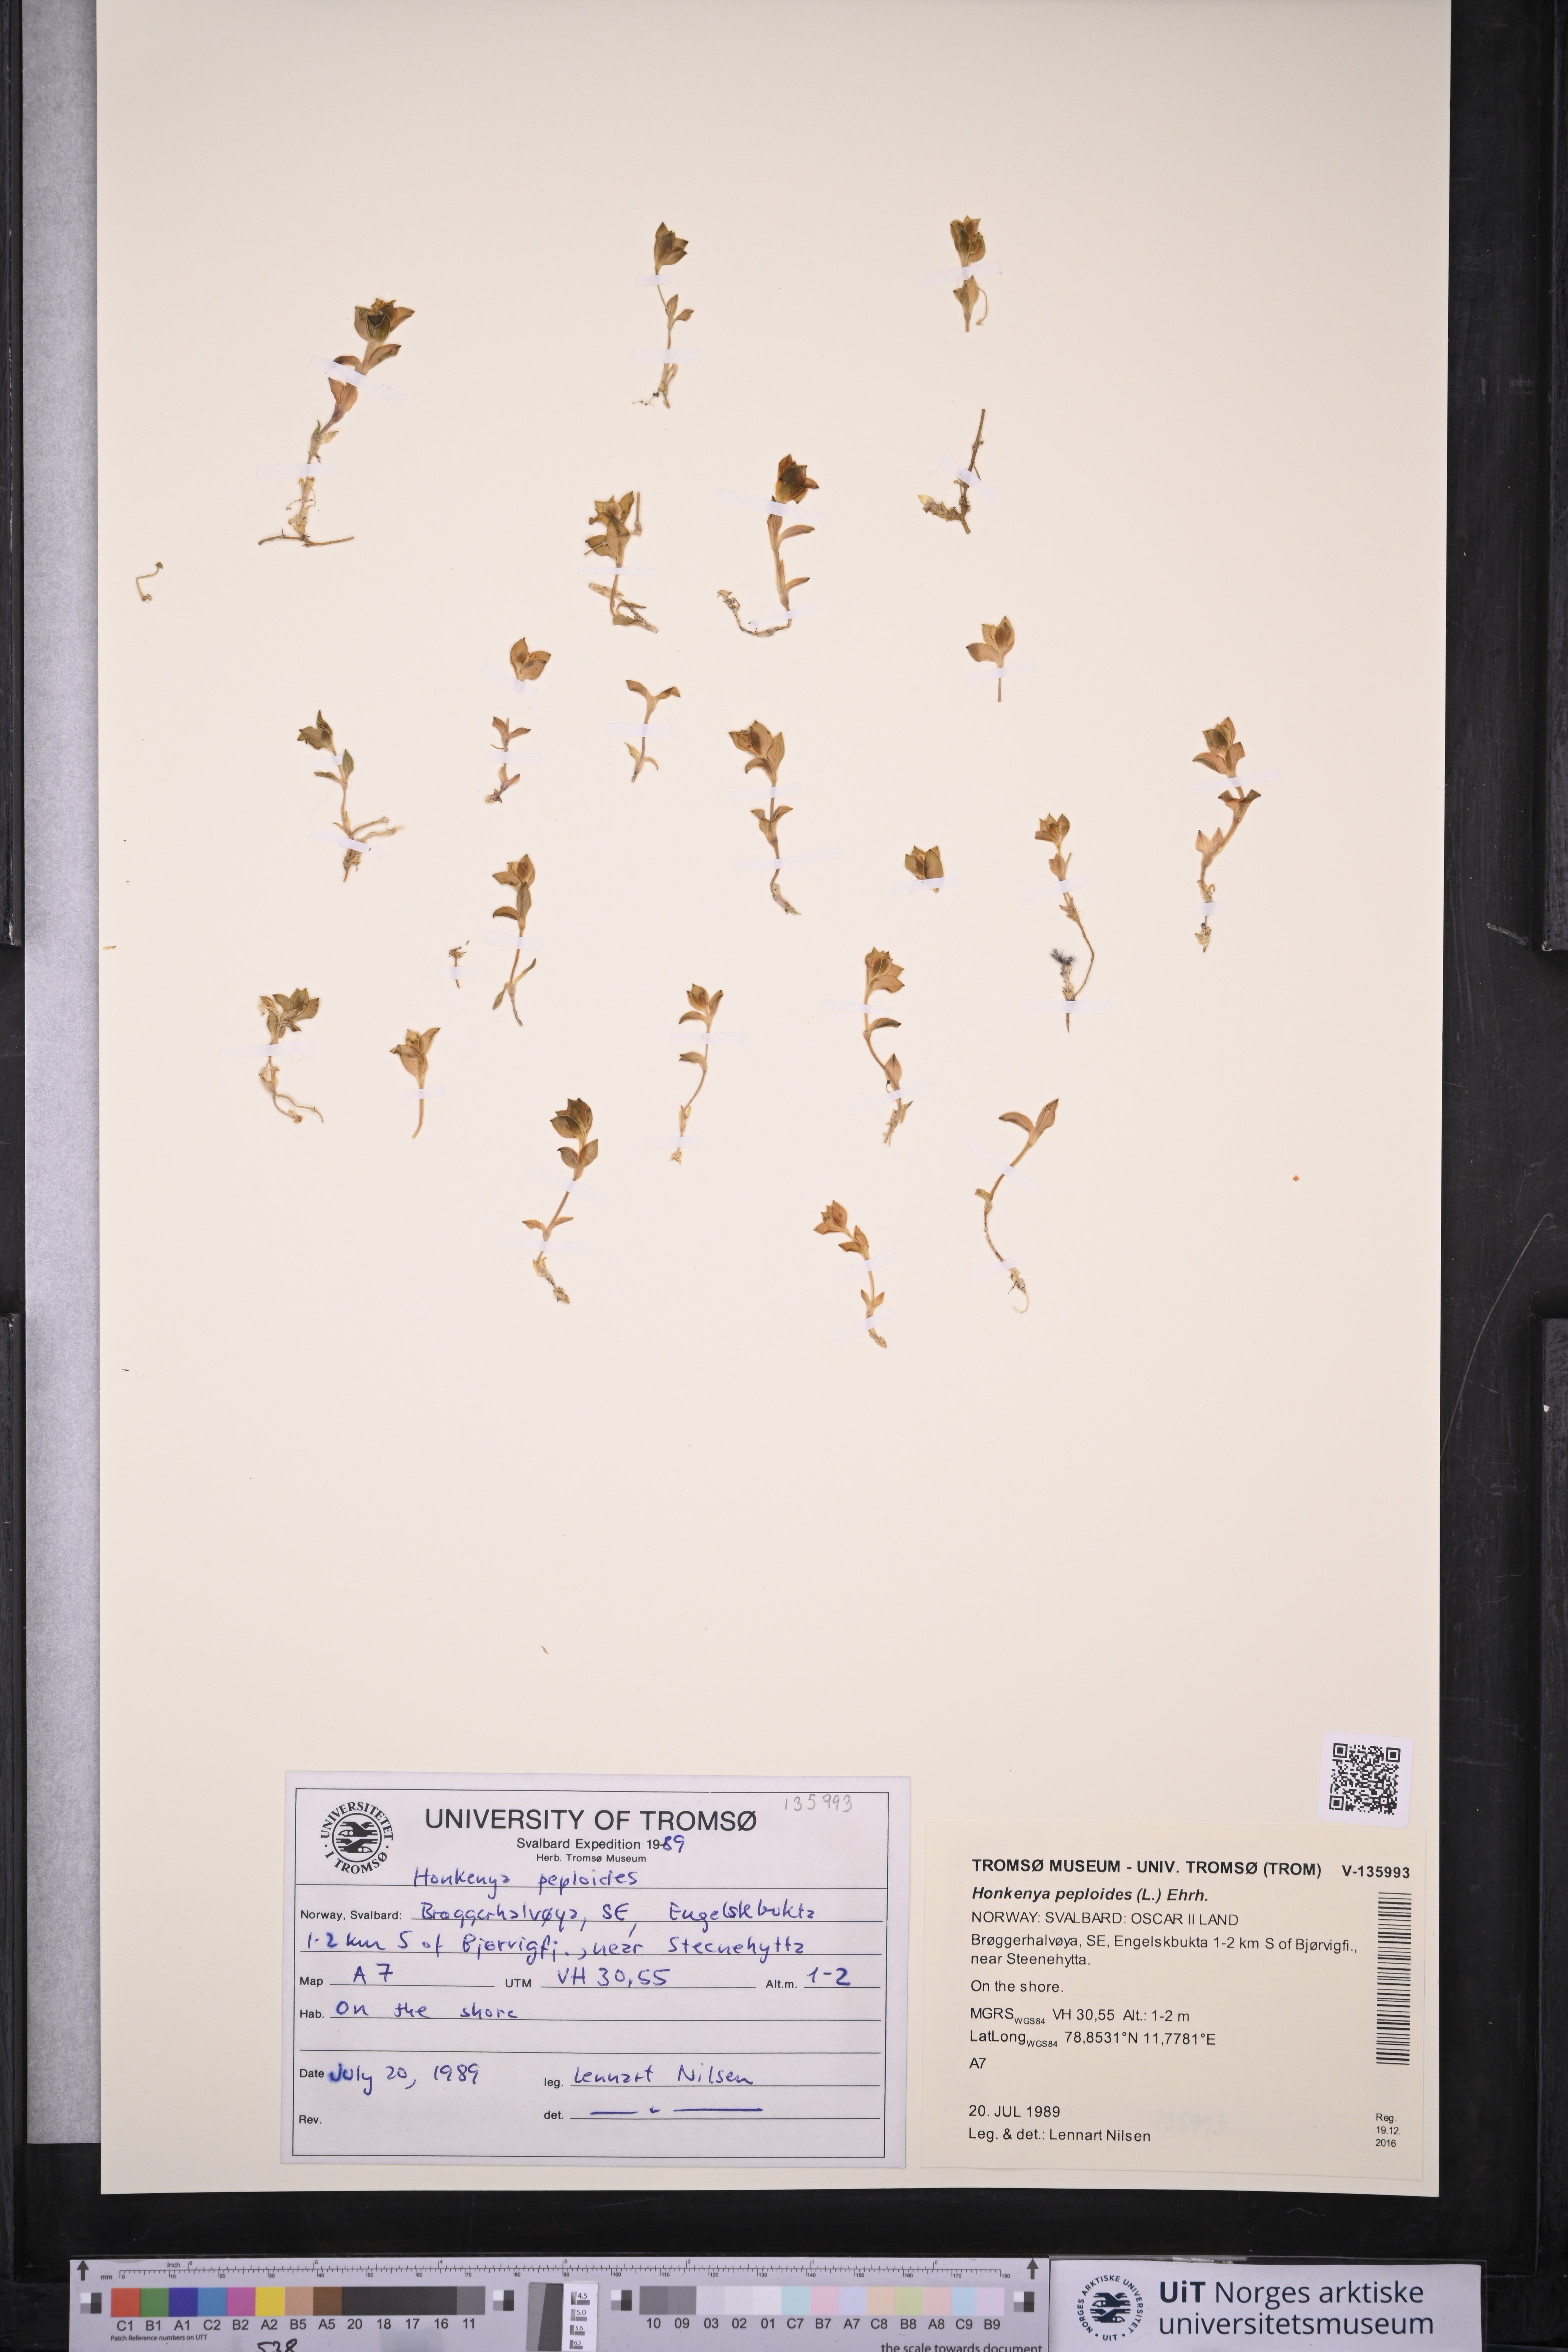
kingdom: Plantae
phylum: Tracheophyta
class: Magnoliopsida
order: Caryophyllales
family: Caryophyllaceae
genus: Honckenya
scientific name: Honckenya peploides
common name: Sea sandwort
